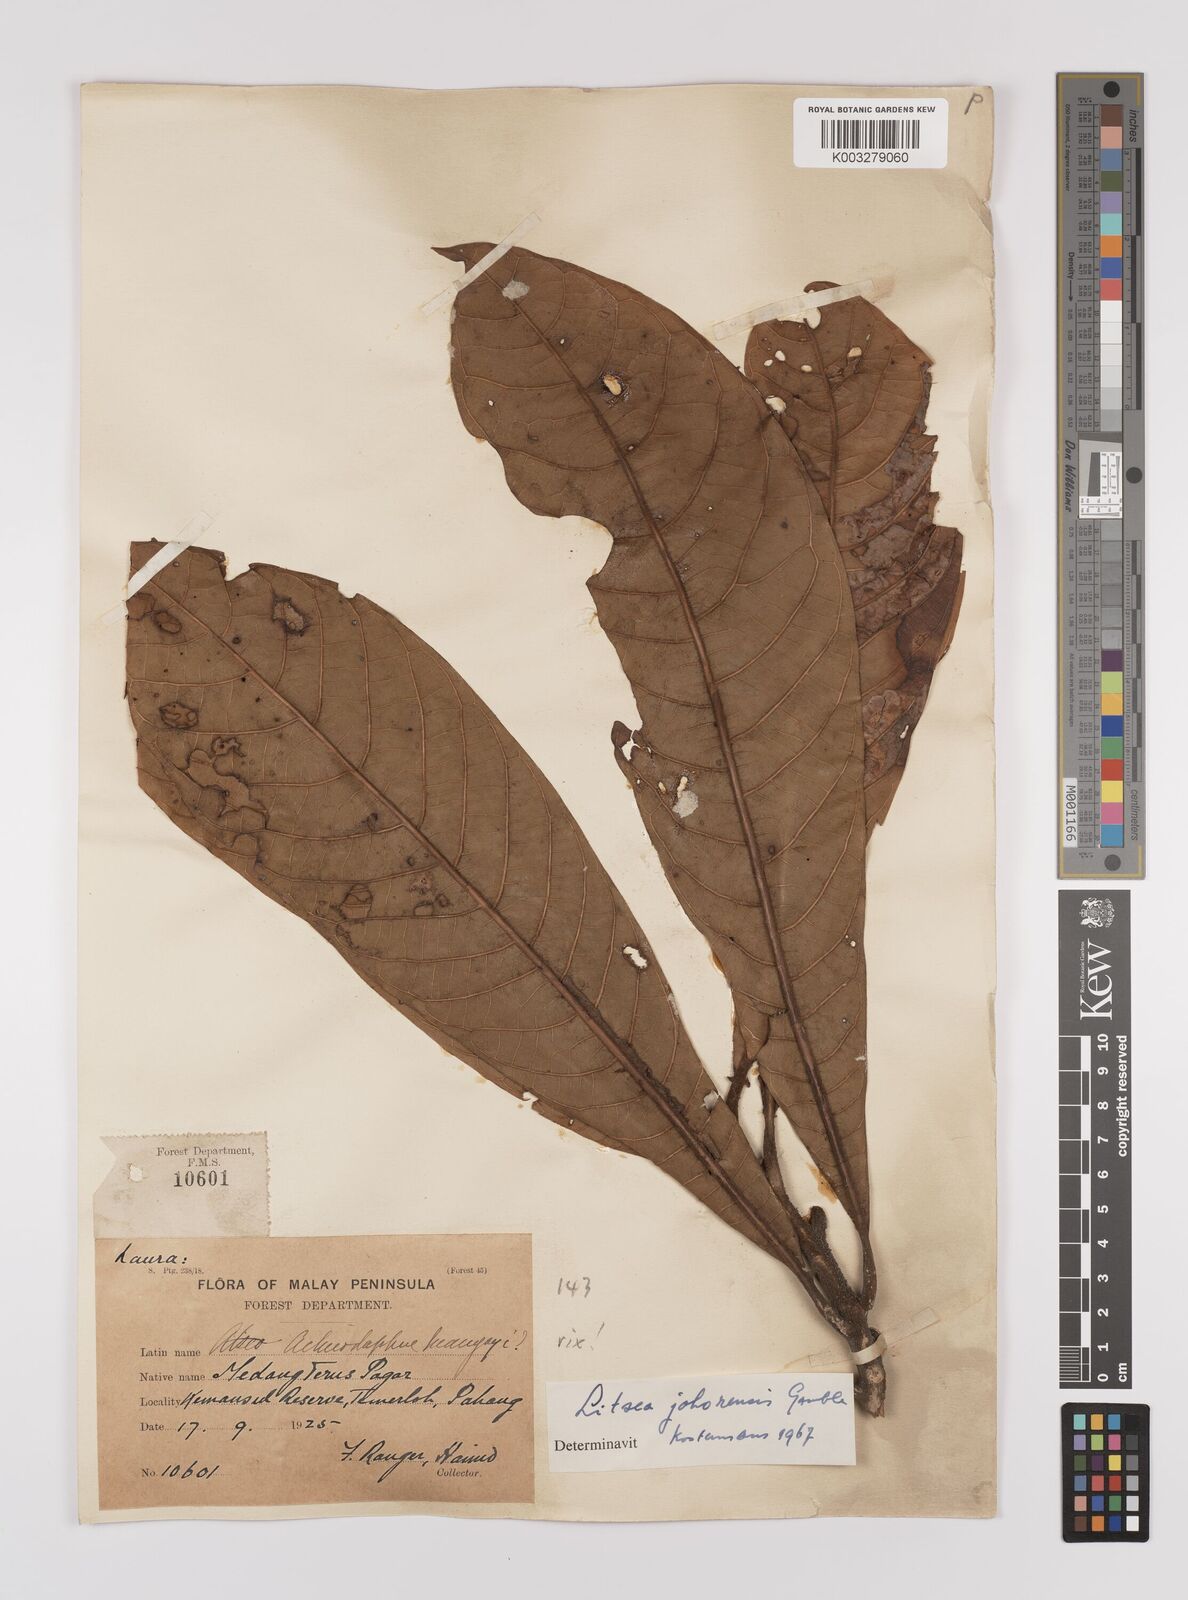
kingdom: Plantae
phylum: Tracheophyta
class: Magnoliopsida
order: Laurales
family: Lauraceae
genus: Litsea
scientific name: Litsea johorensis
